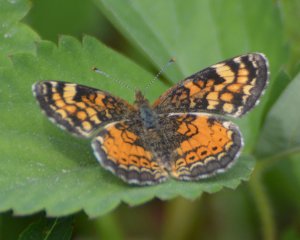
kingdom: Animalia
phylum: Arthropoda
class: Insecta
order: Lepidoptera
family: Nymphalidae
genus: Phyciodes
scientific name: Phyciodes tharos
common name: Northern Crescent
